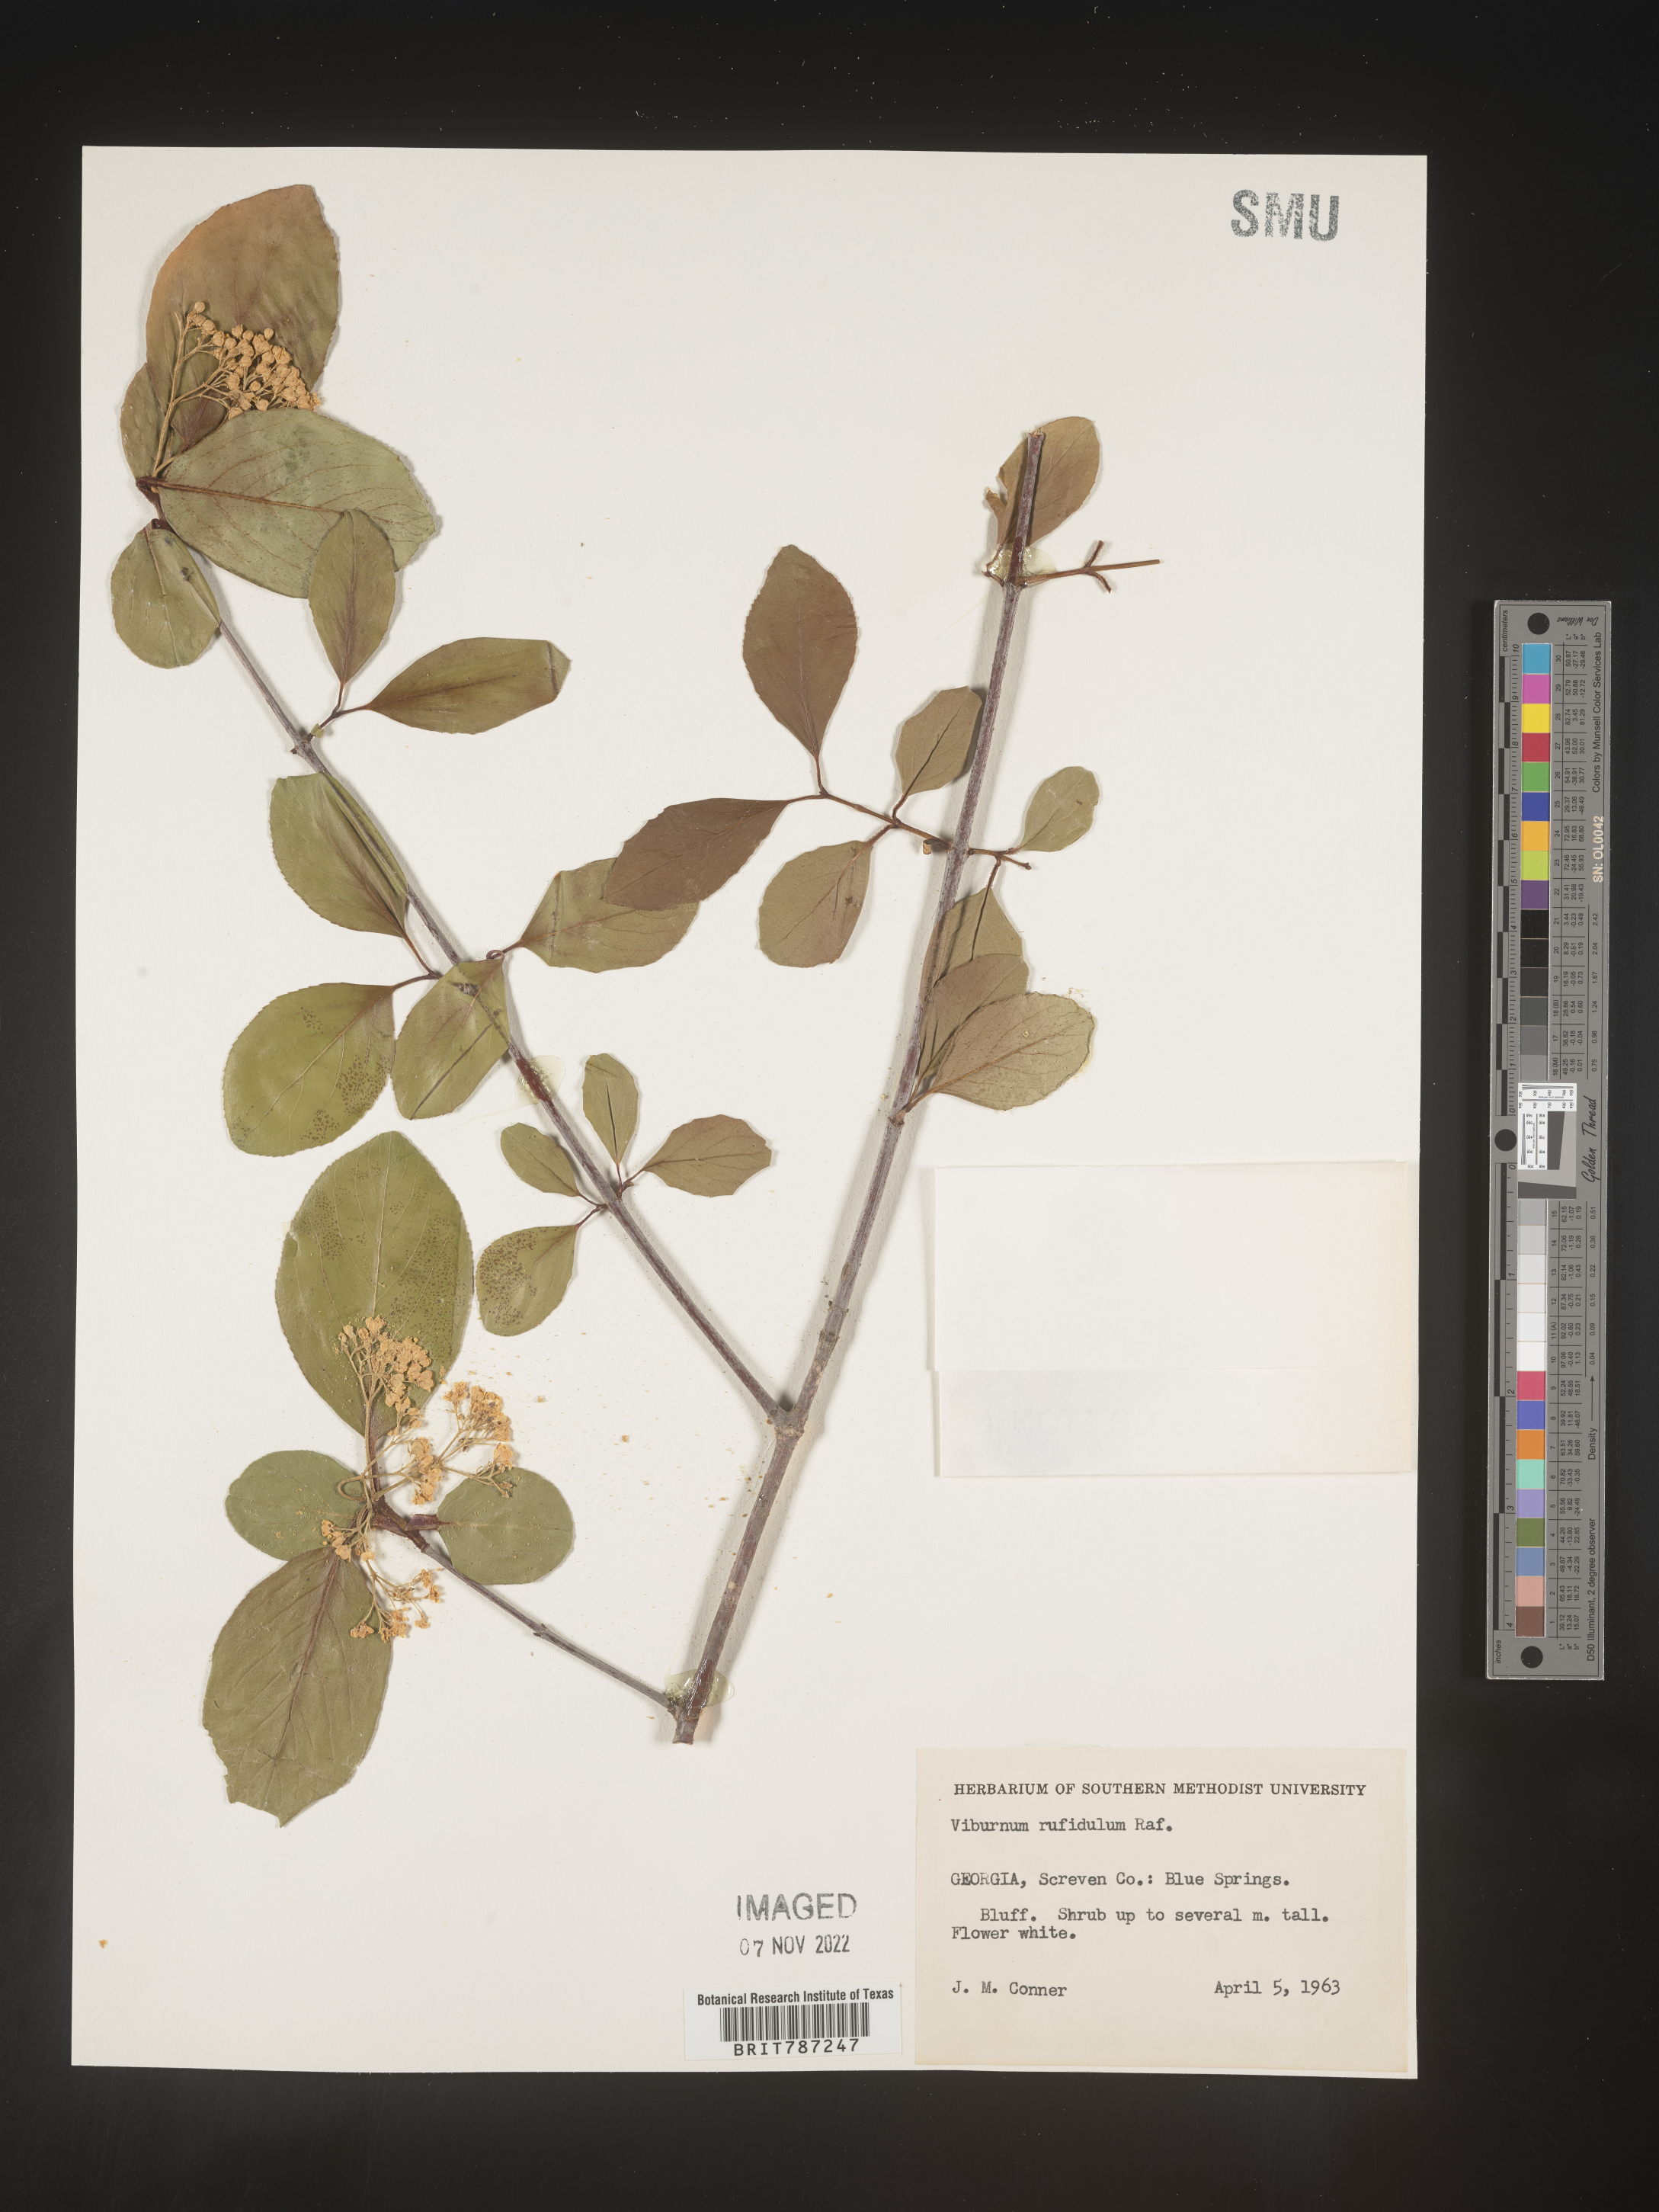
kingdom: Plantae
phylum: Tracheophyta
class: Magnoliopsida
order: Dipsacales
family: Viburnaceae
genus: Viburnum
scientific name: Viburnum rufidulum
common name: Blue haw
